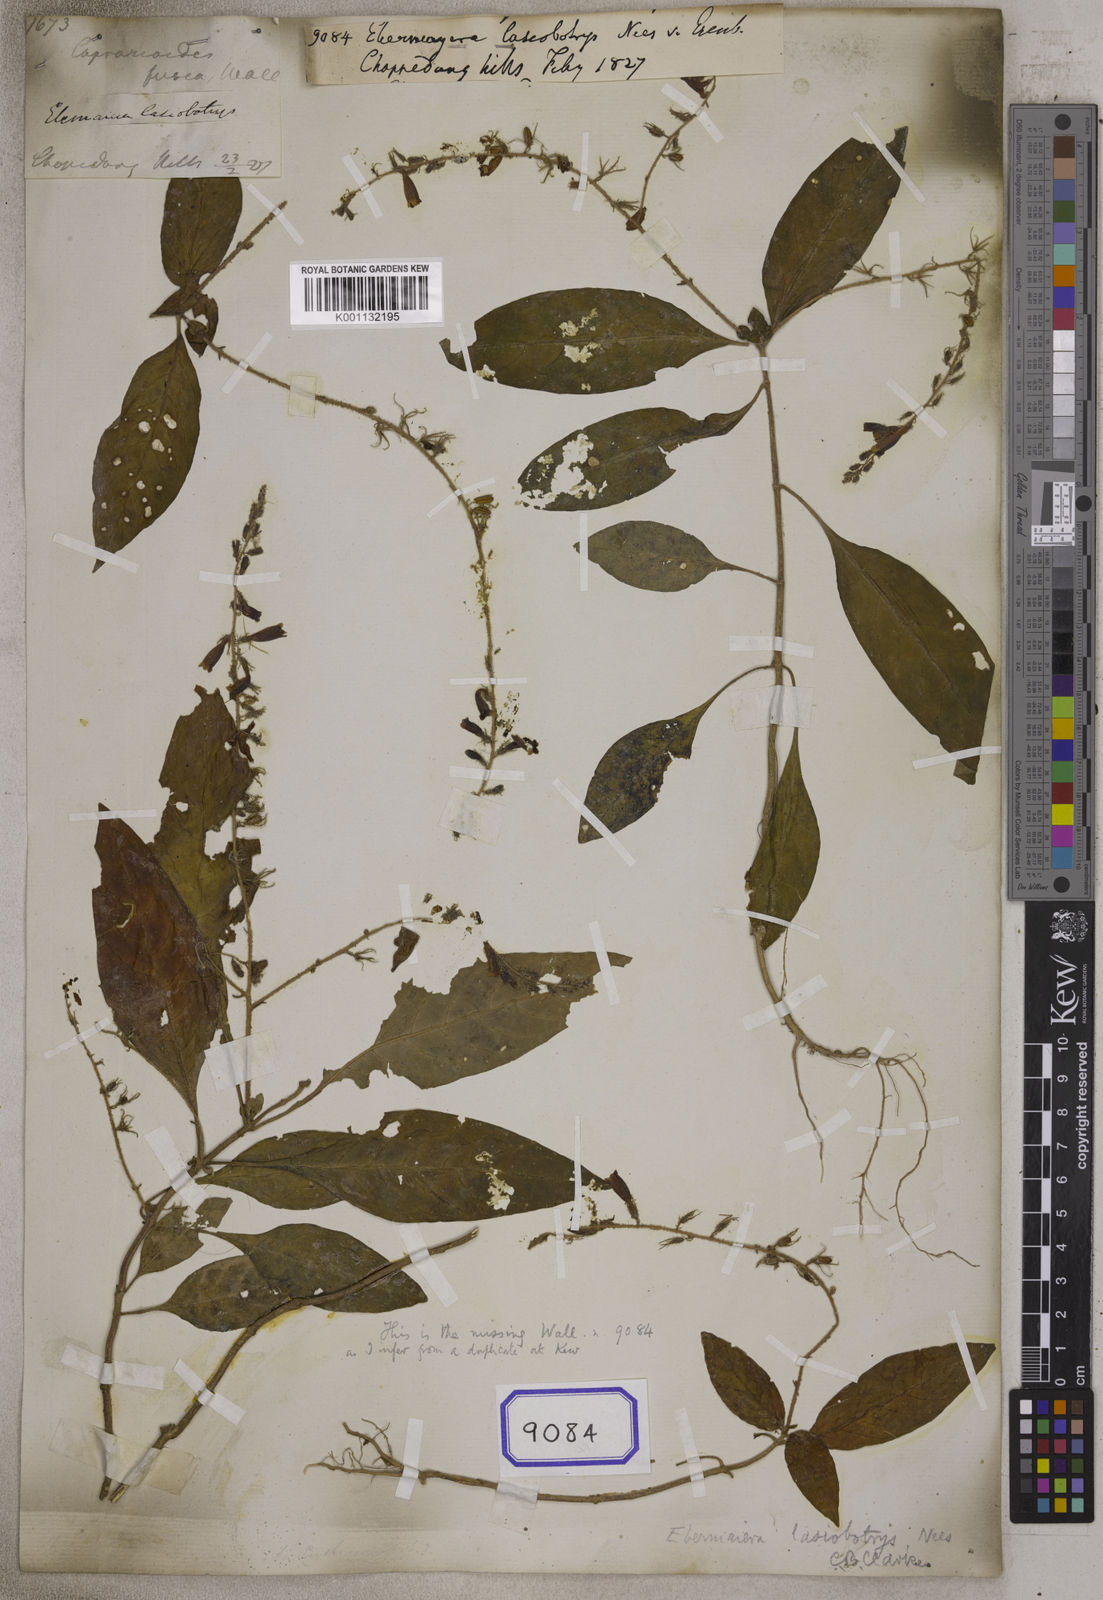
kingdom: Plantae
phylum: Tracheophyta
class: Magnoliopsida
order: Lamiales
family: Acanthaceae
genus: Staurogyne
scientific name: Staurogyne lasiobotrys
